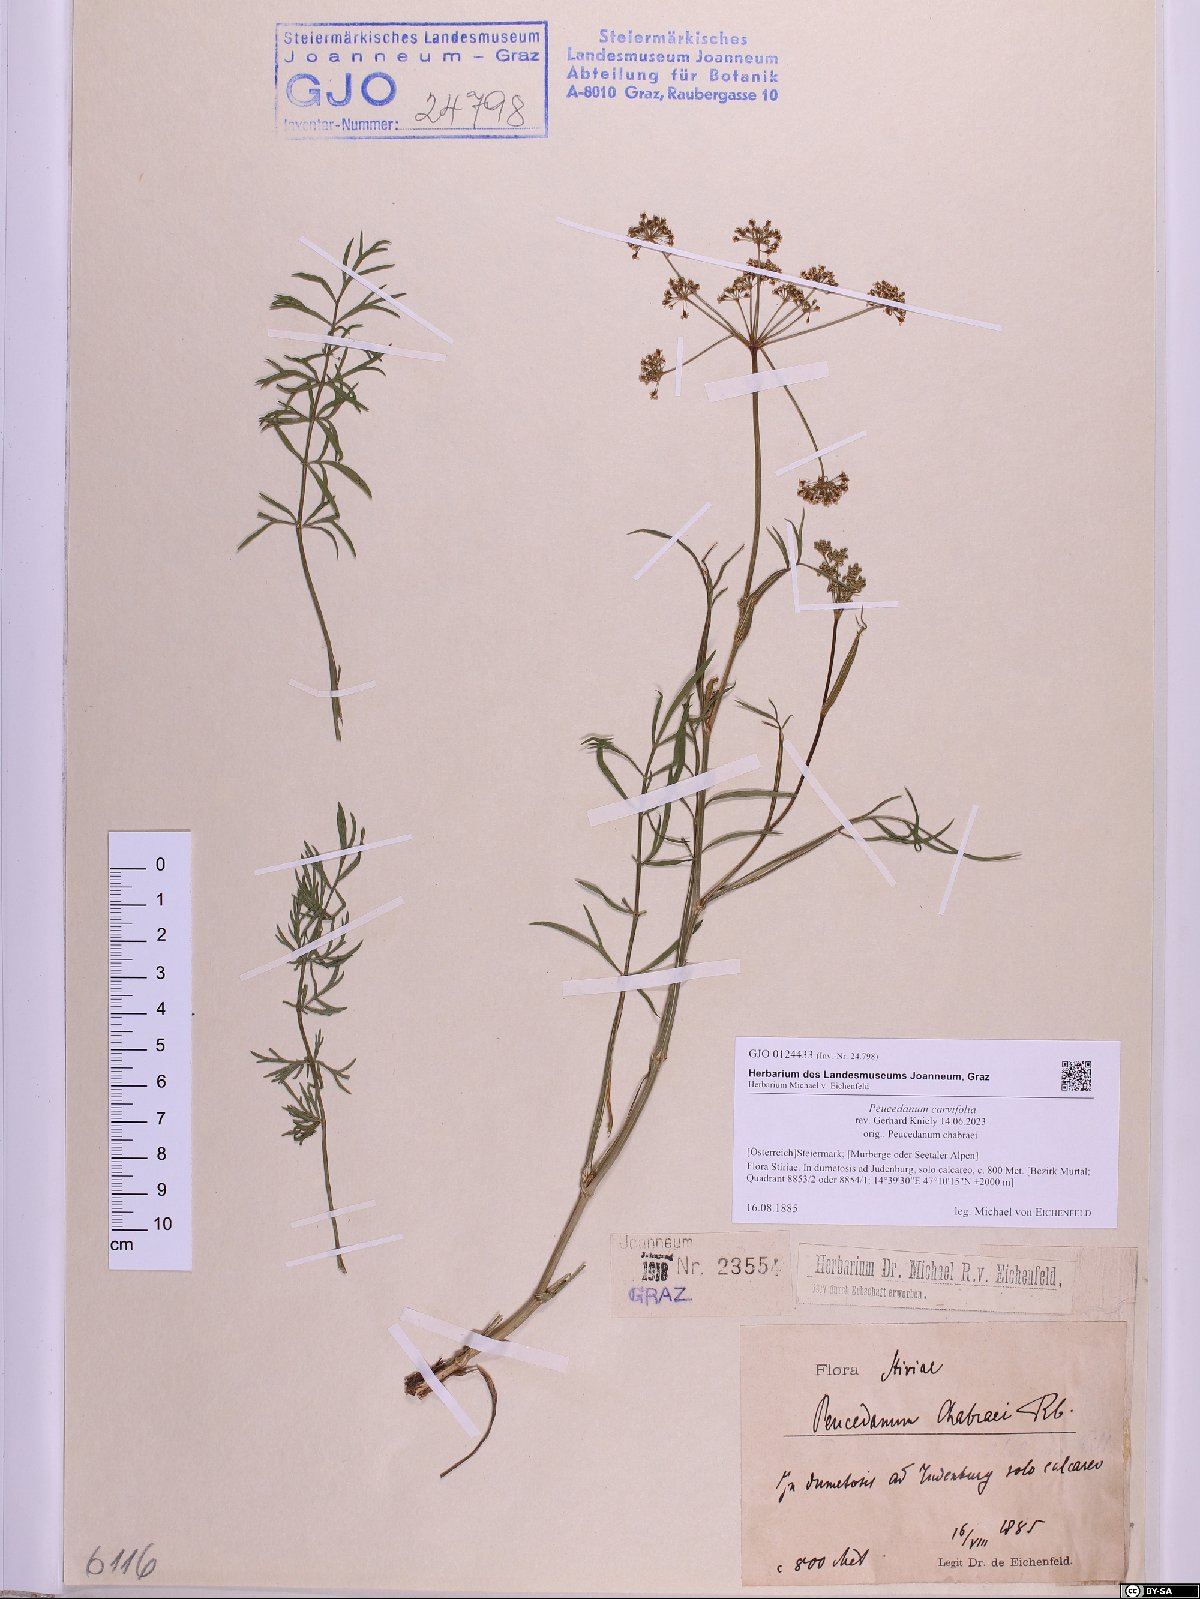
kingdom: Plantae
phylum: Tracheophyta
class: Magnoliopsida
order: Apiales
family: Apiaceae
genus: Dichoropetalum
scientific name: Dichoropetalum carvifolia
